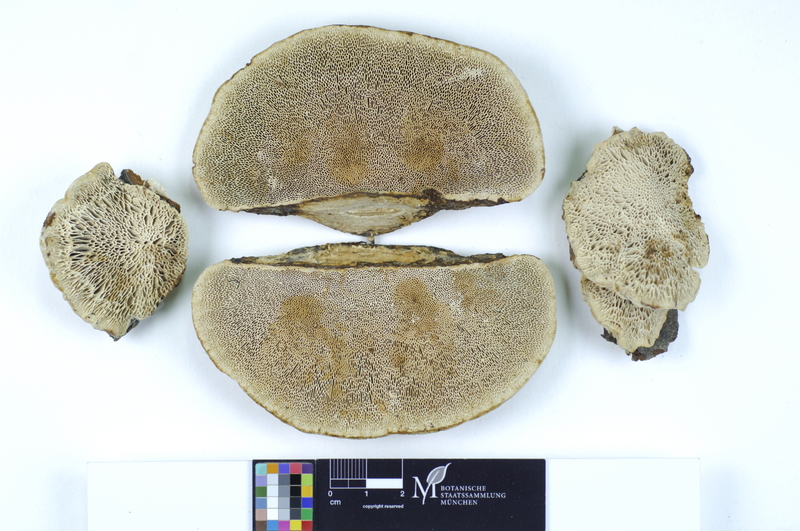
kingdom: Fungi
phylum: Basidiomycota
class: Agaricomycetes
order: Polyporales
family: Polyporaceae
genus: Daedaleopsis
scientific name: Daedaleopsis confragosa
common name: Blushing bracket
